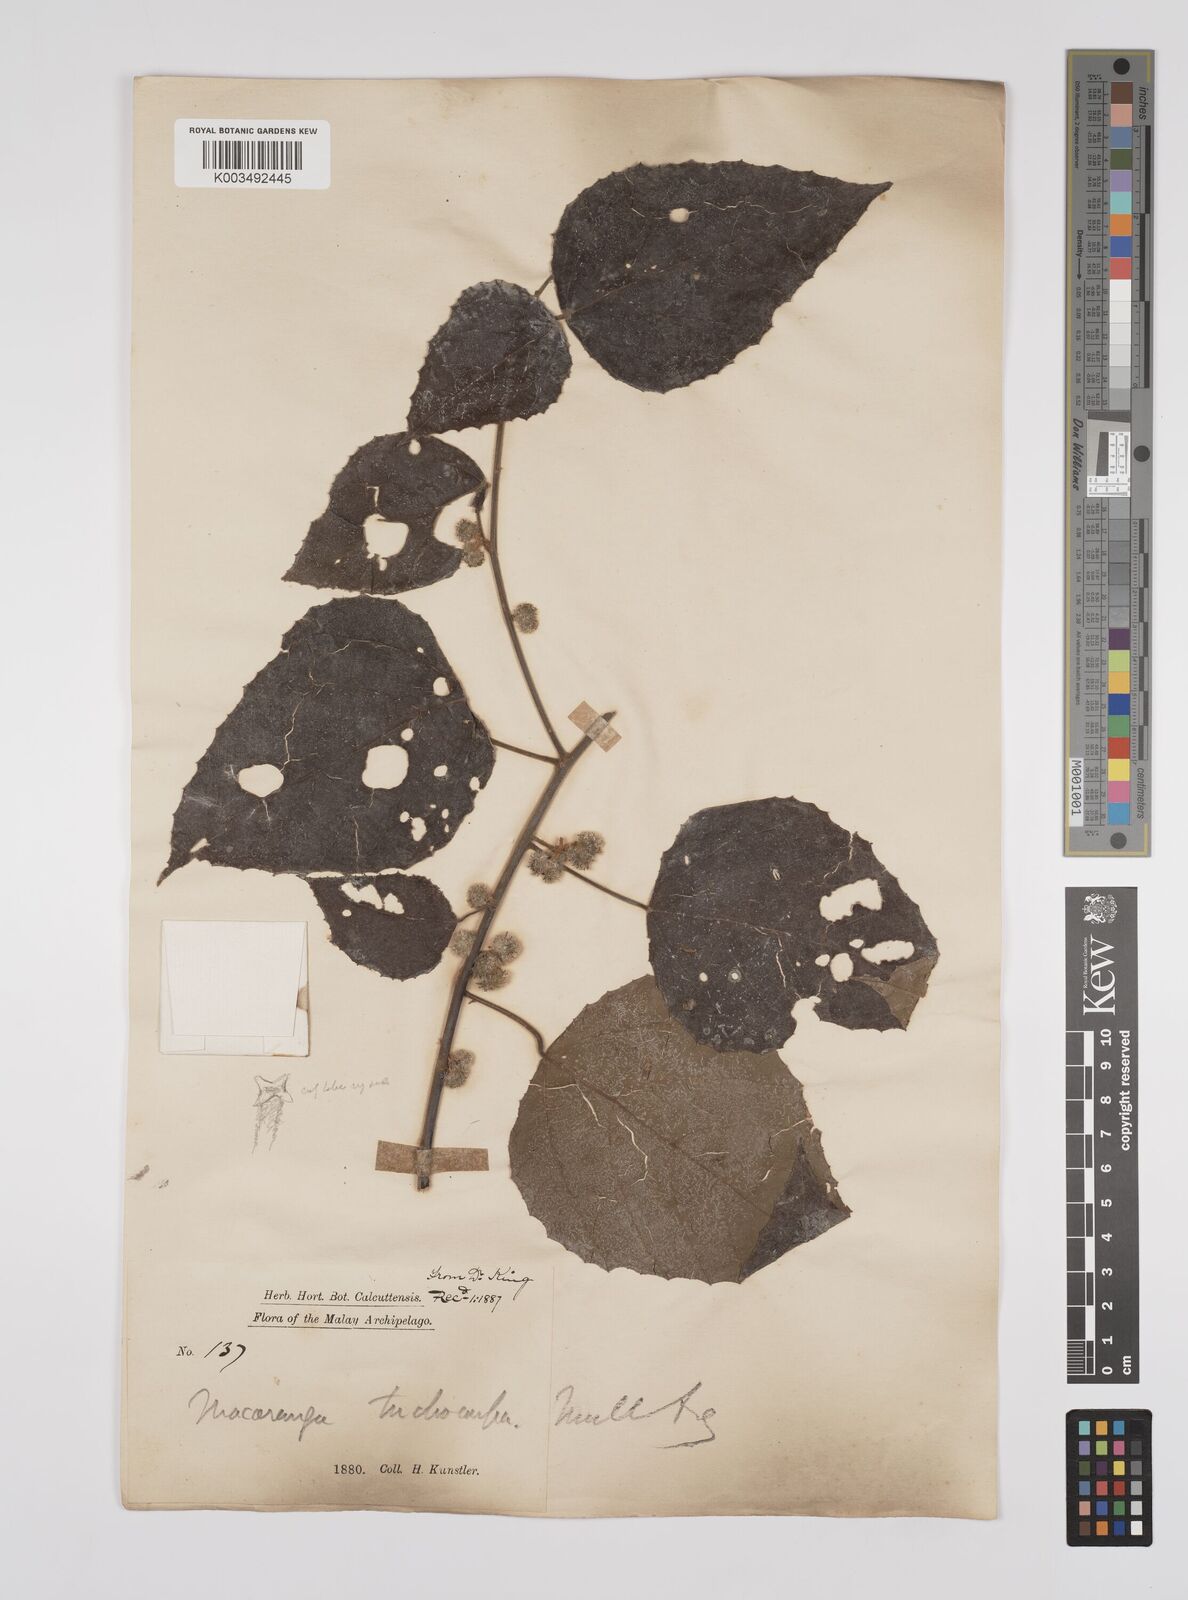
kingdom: Plantae
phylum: Tracheophyta
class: Magnoliopsida
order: Malpighiales
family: Euphorbiaceae
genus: Macaranga
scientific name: Macaranga trichocarpa
